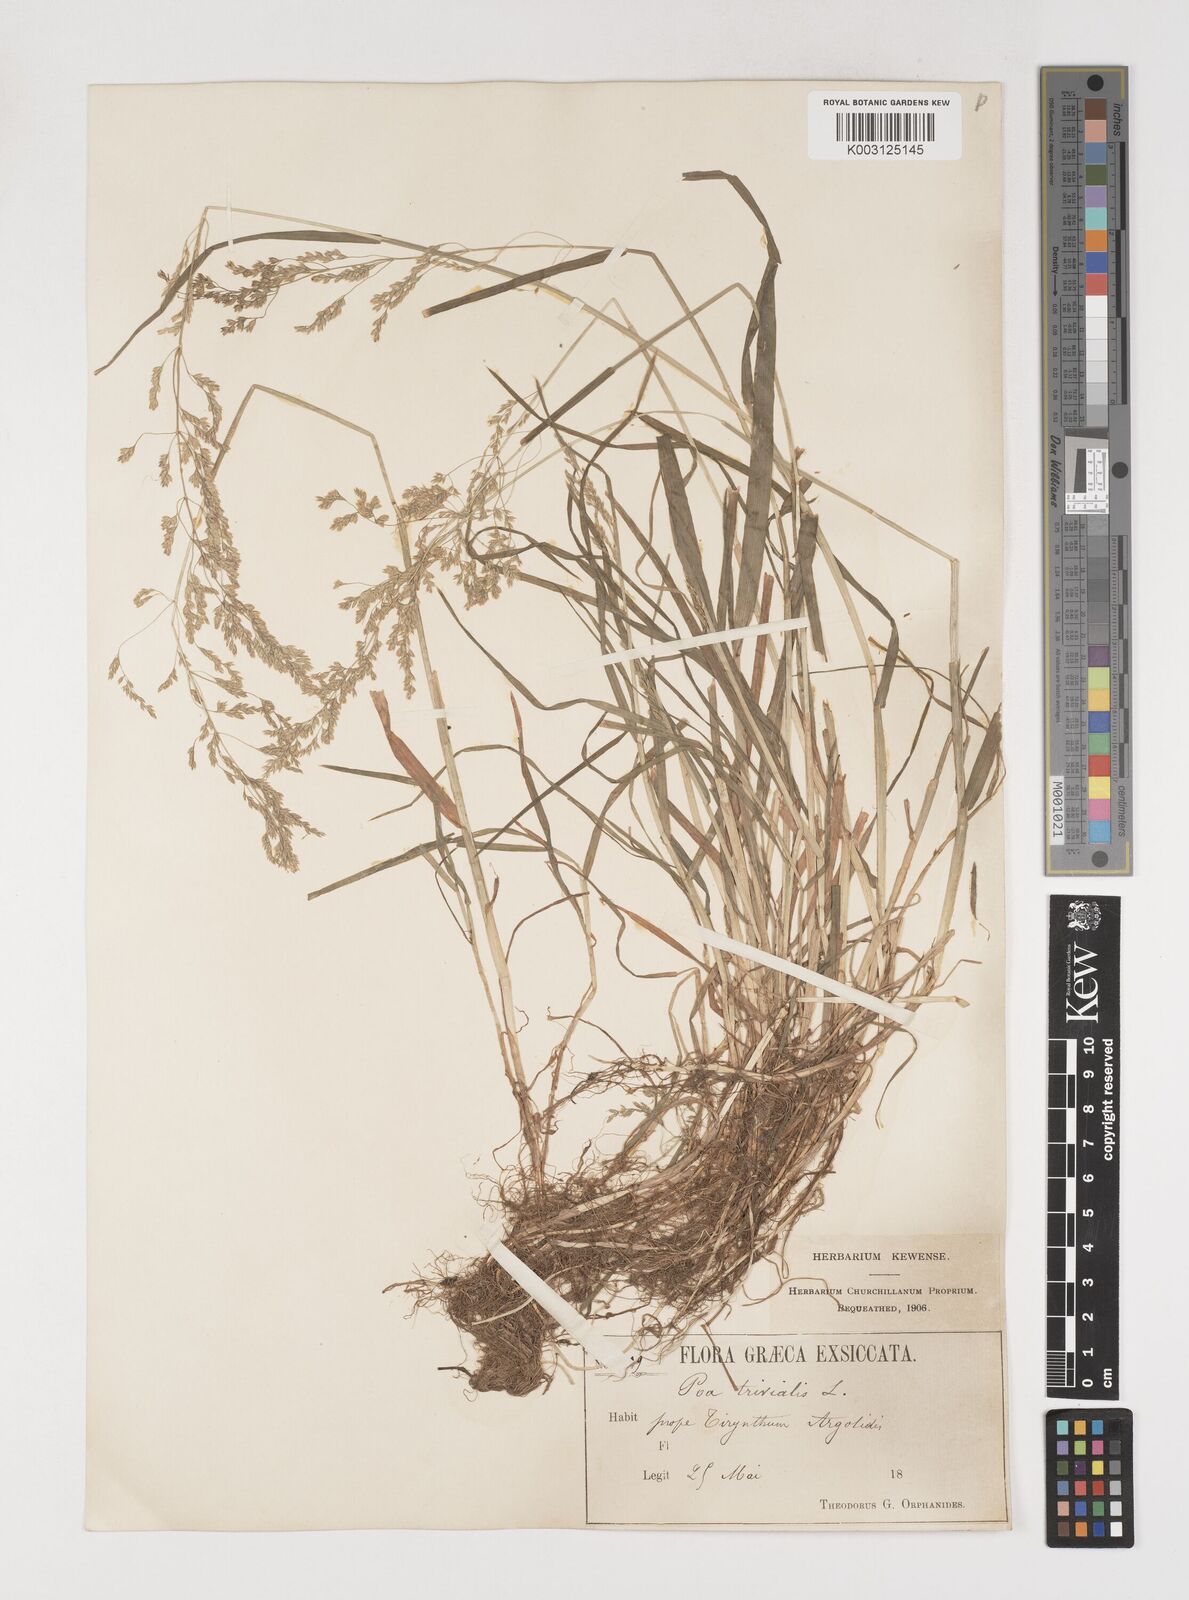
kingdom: Plantae
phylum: Tracheophyta
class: Liliopsida
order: Poales
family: Poaceae
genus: Poa
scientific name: Poa trivialis
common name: Rough bluegrass
